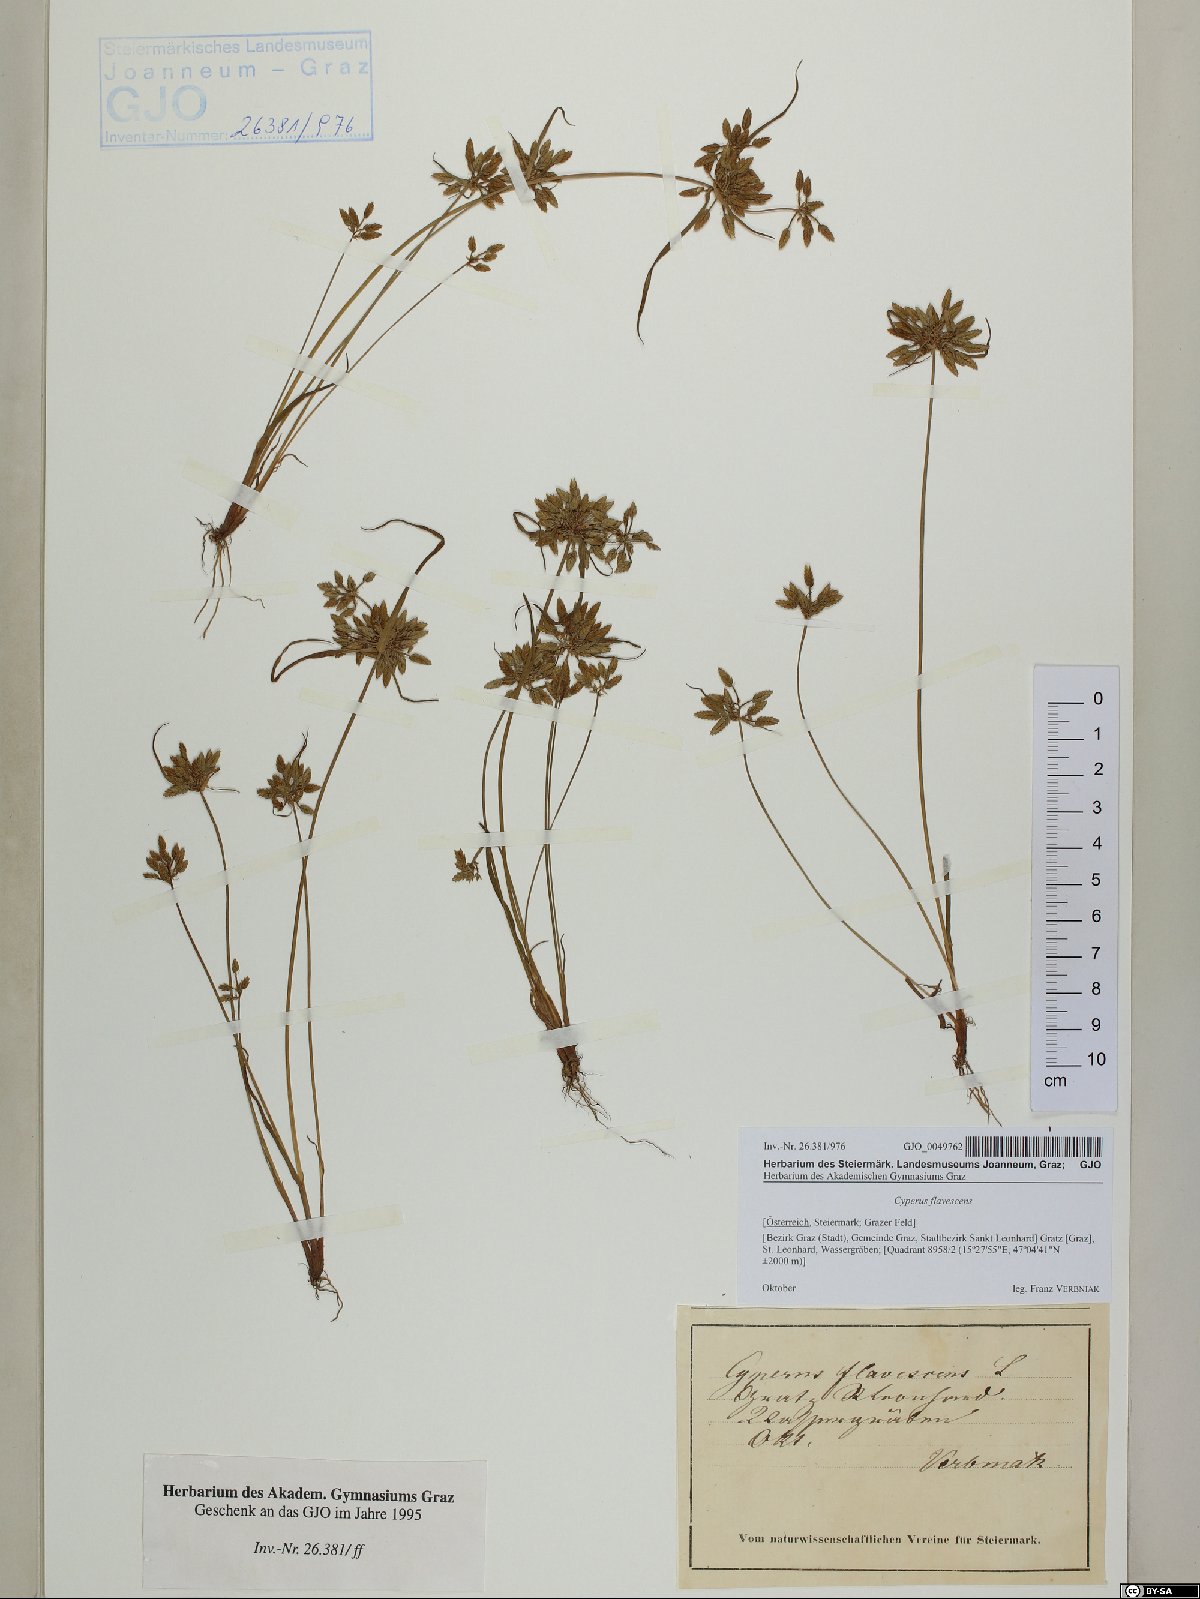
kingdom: Plantae
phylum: Tracheophyta
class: Liliopsida
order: Poales
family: Cyperaceae
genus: Cyperus
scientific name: Cyperus flavescens
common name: Yellow galingale
